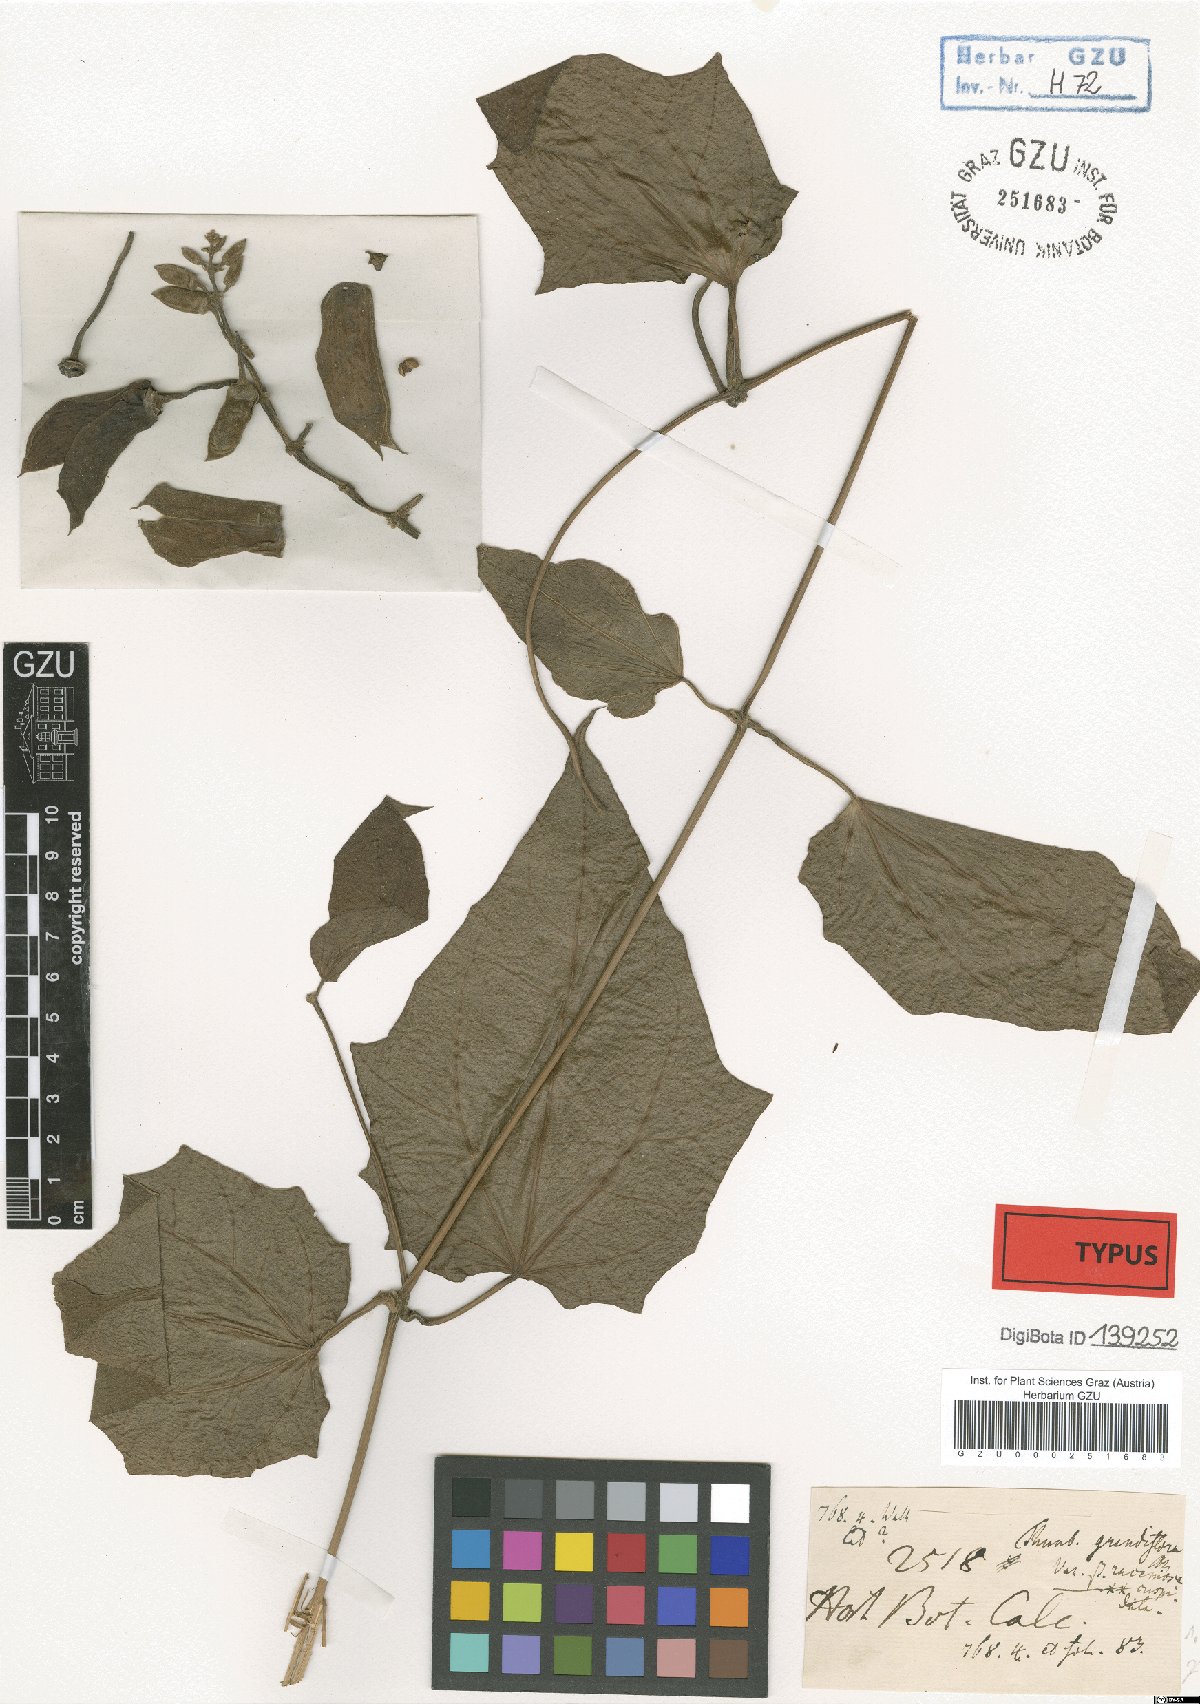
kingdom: Plantae
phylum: Tracheophyta
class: Magnoliopsida
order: Lamiales
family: Acanthaceae
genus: Thunbergia
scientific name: Thunbergia grandiflora
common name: Bengal trumpet
